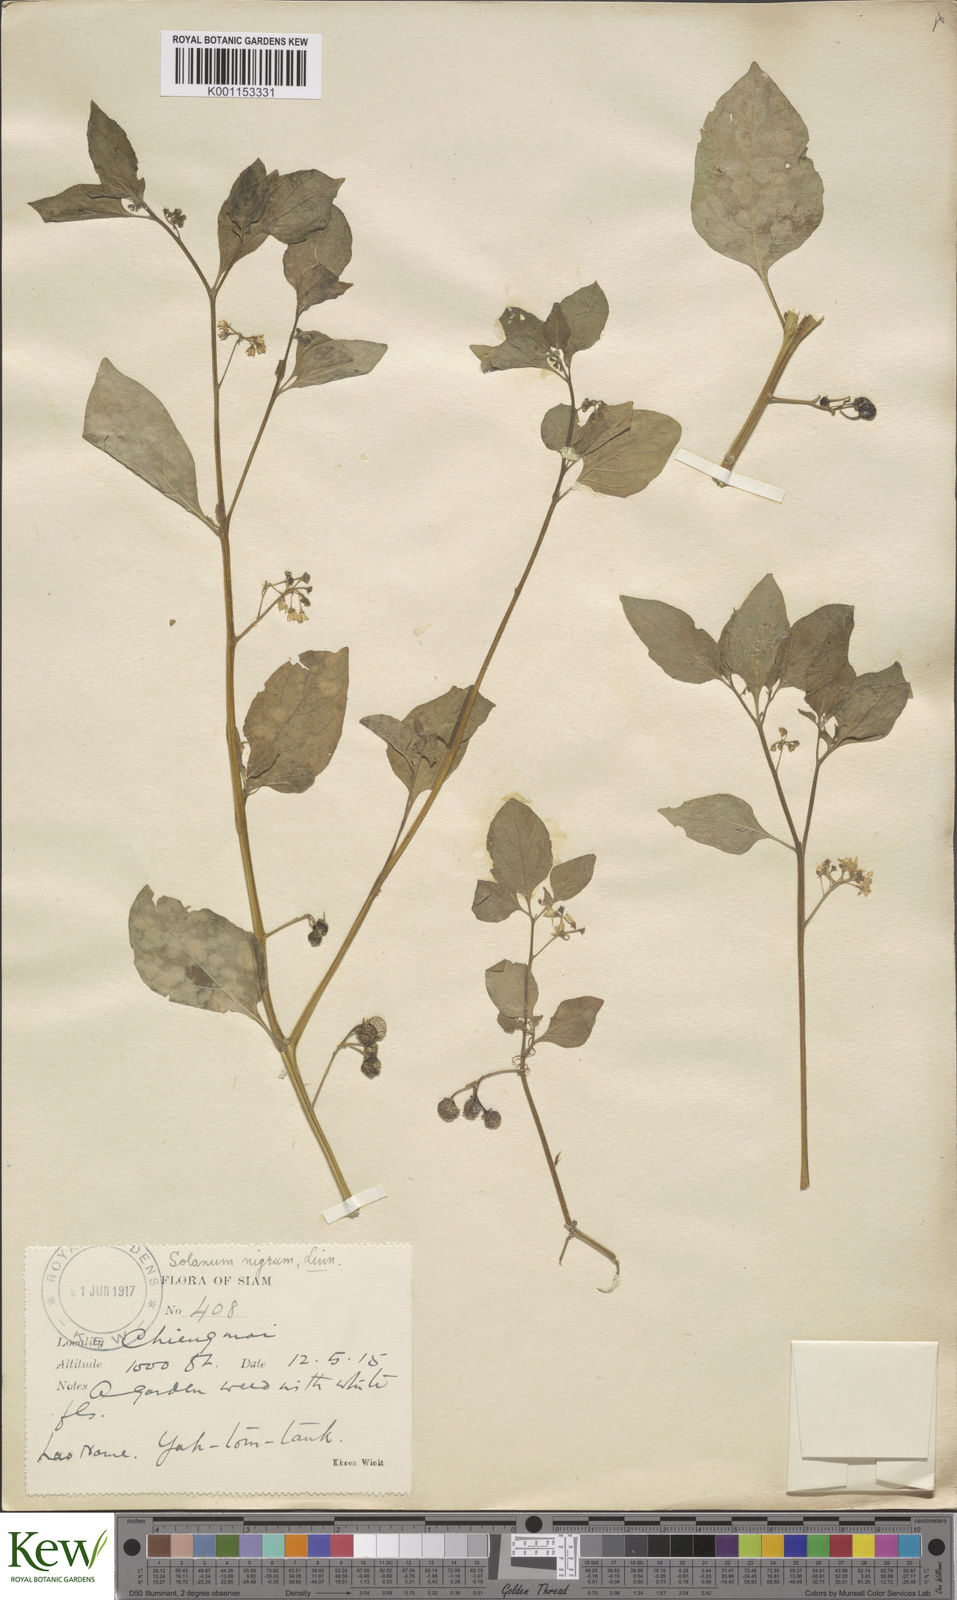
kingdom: Plantae
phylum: Tracheophyta
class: Magnoliopsida
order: Solanales
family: Solanaceae
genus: Solanum
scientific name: Solanum nigrum
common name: Black nightshade
